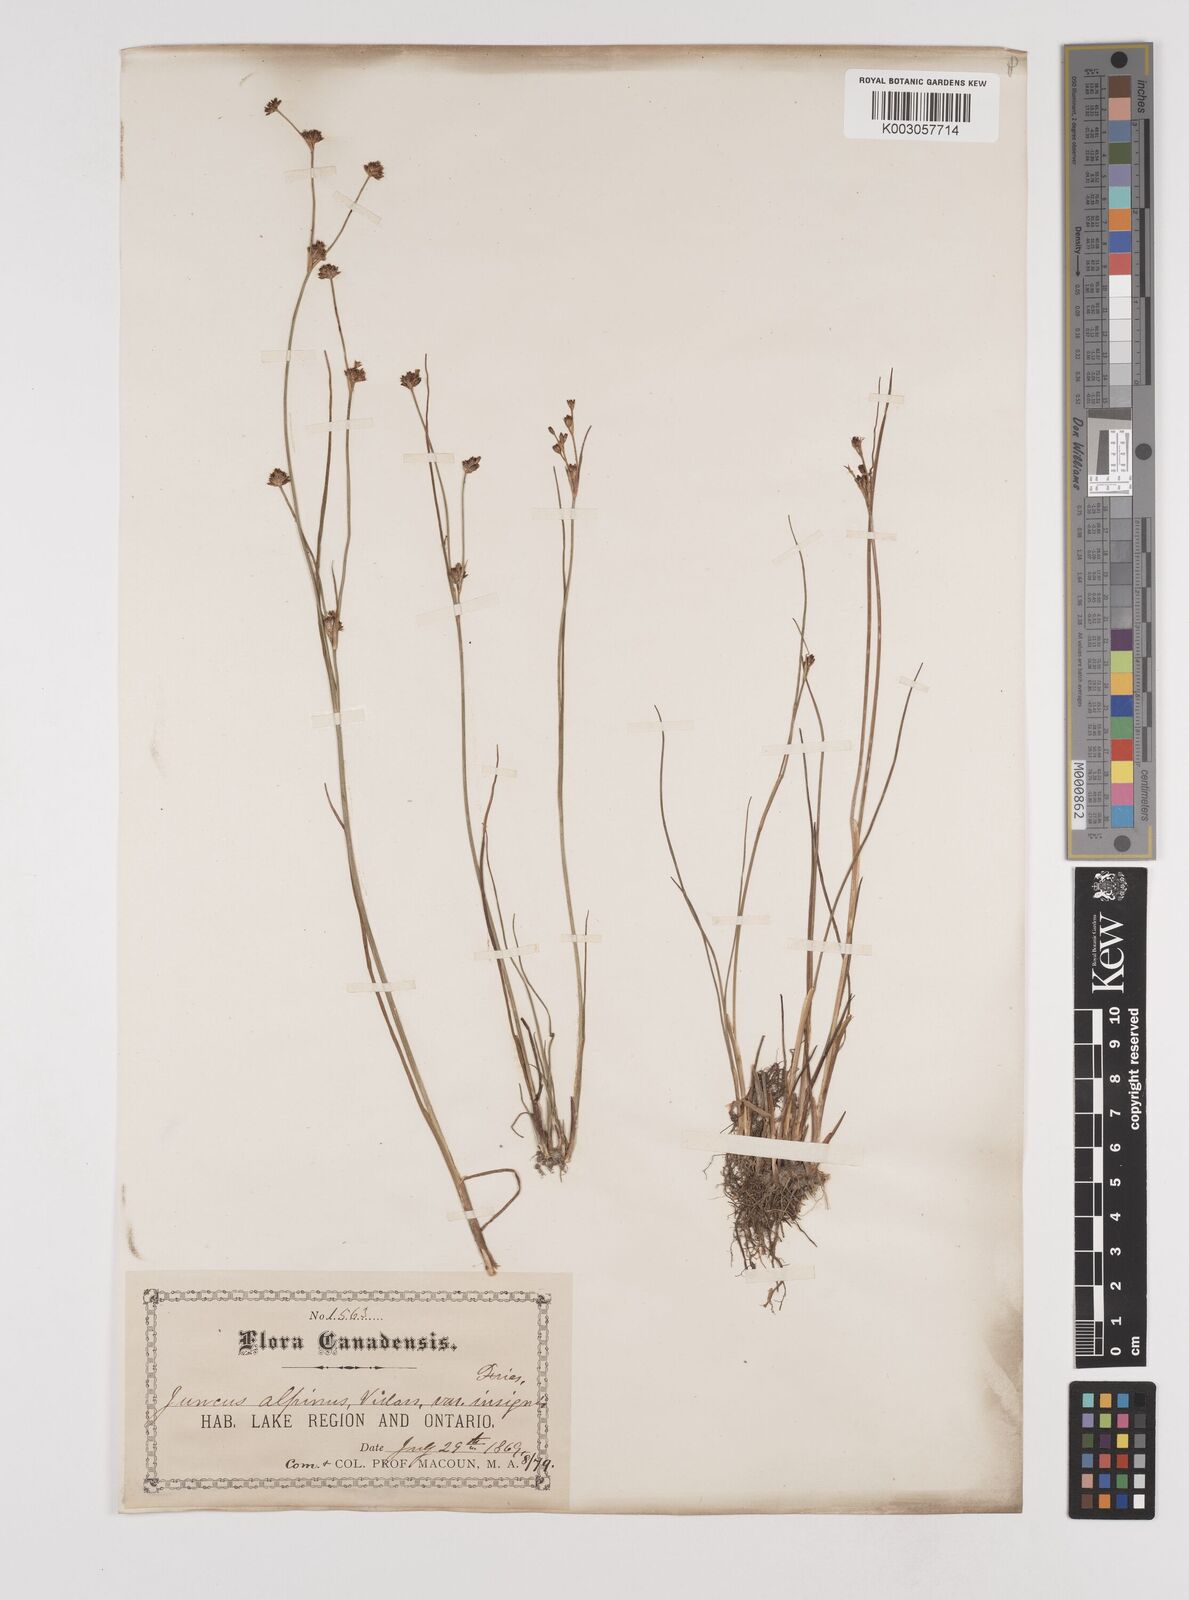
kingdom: Plantae
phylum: Tracheophyta
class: Liliopsida
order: Poales
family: Juncaceae
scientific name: Juncaceae
